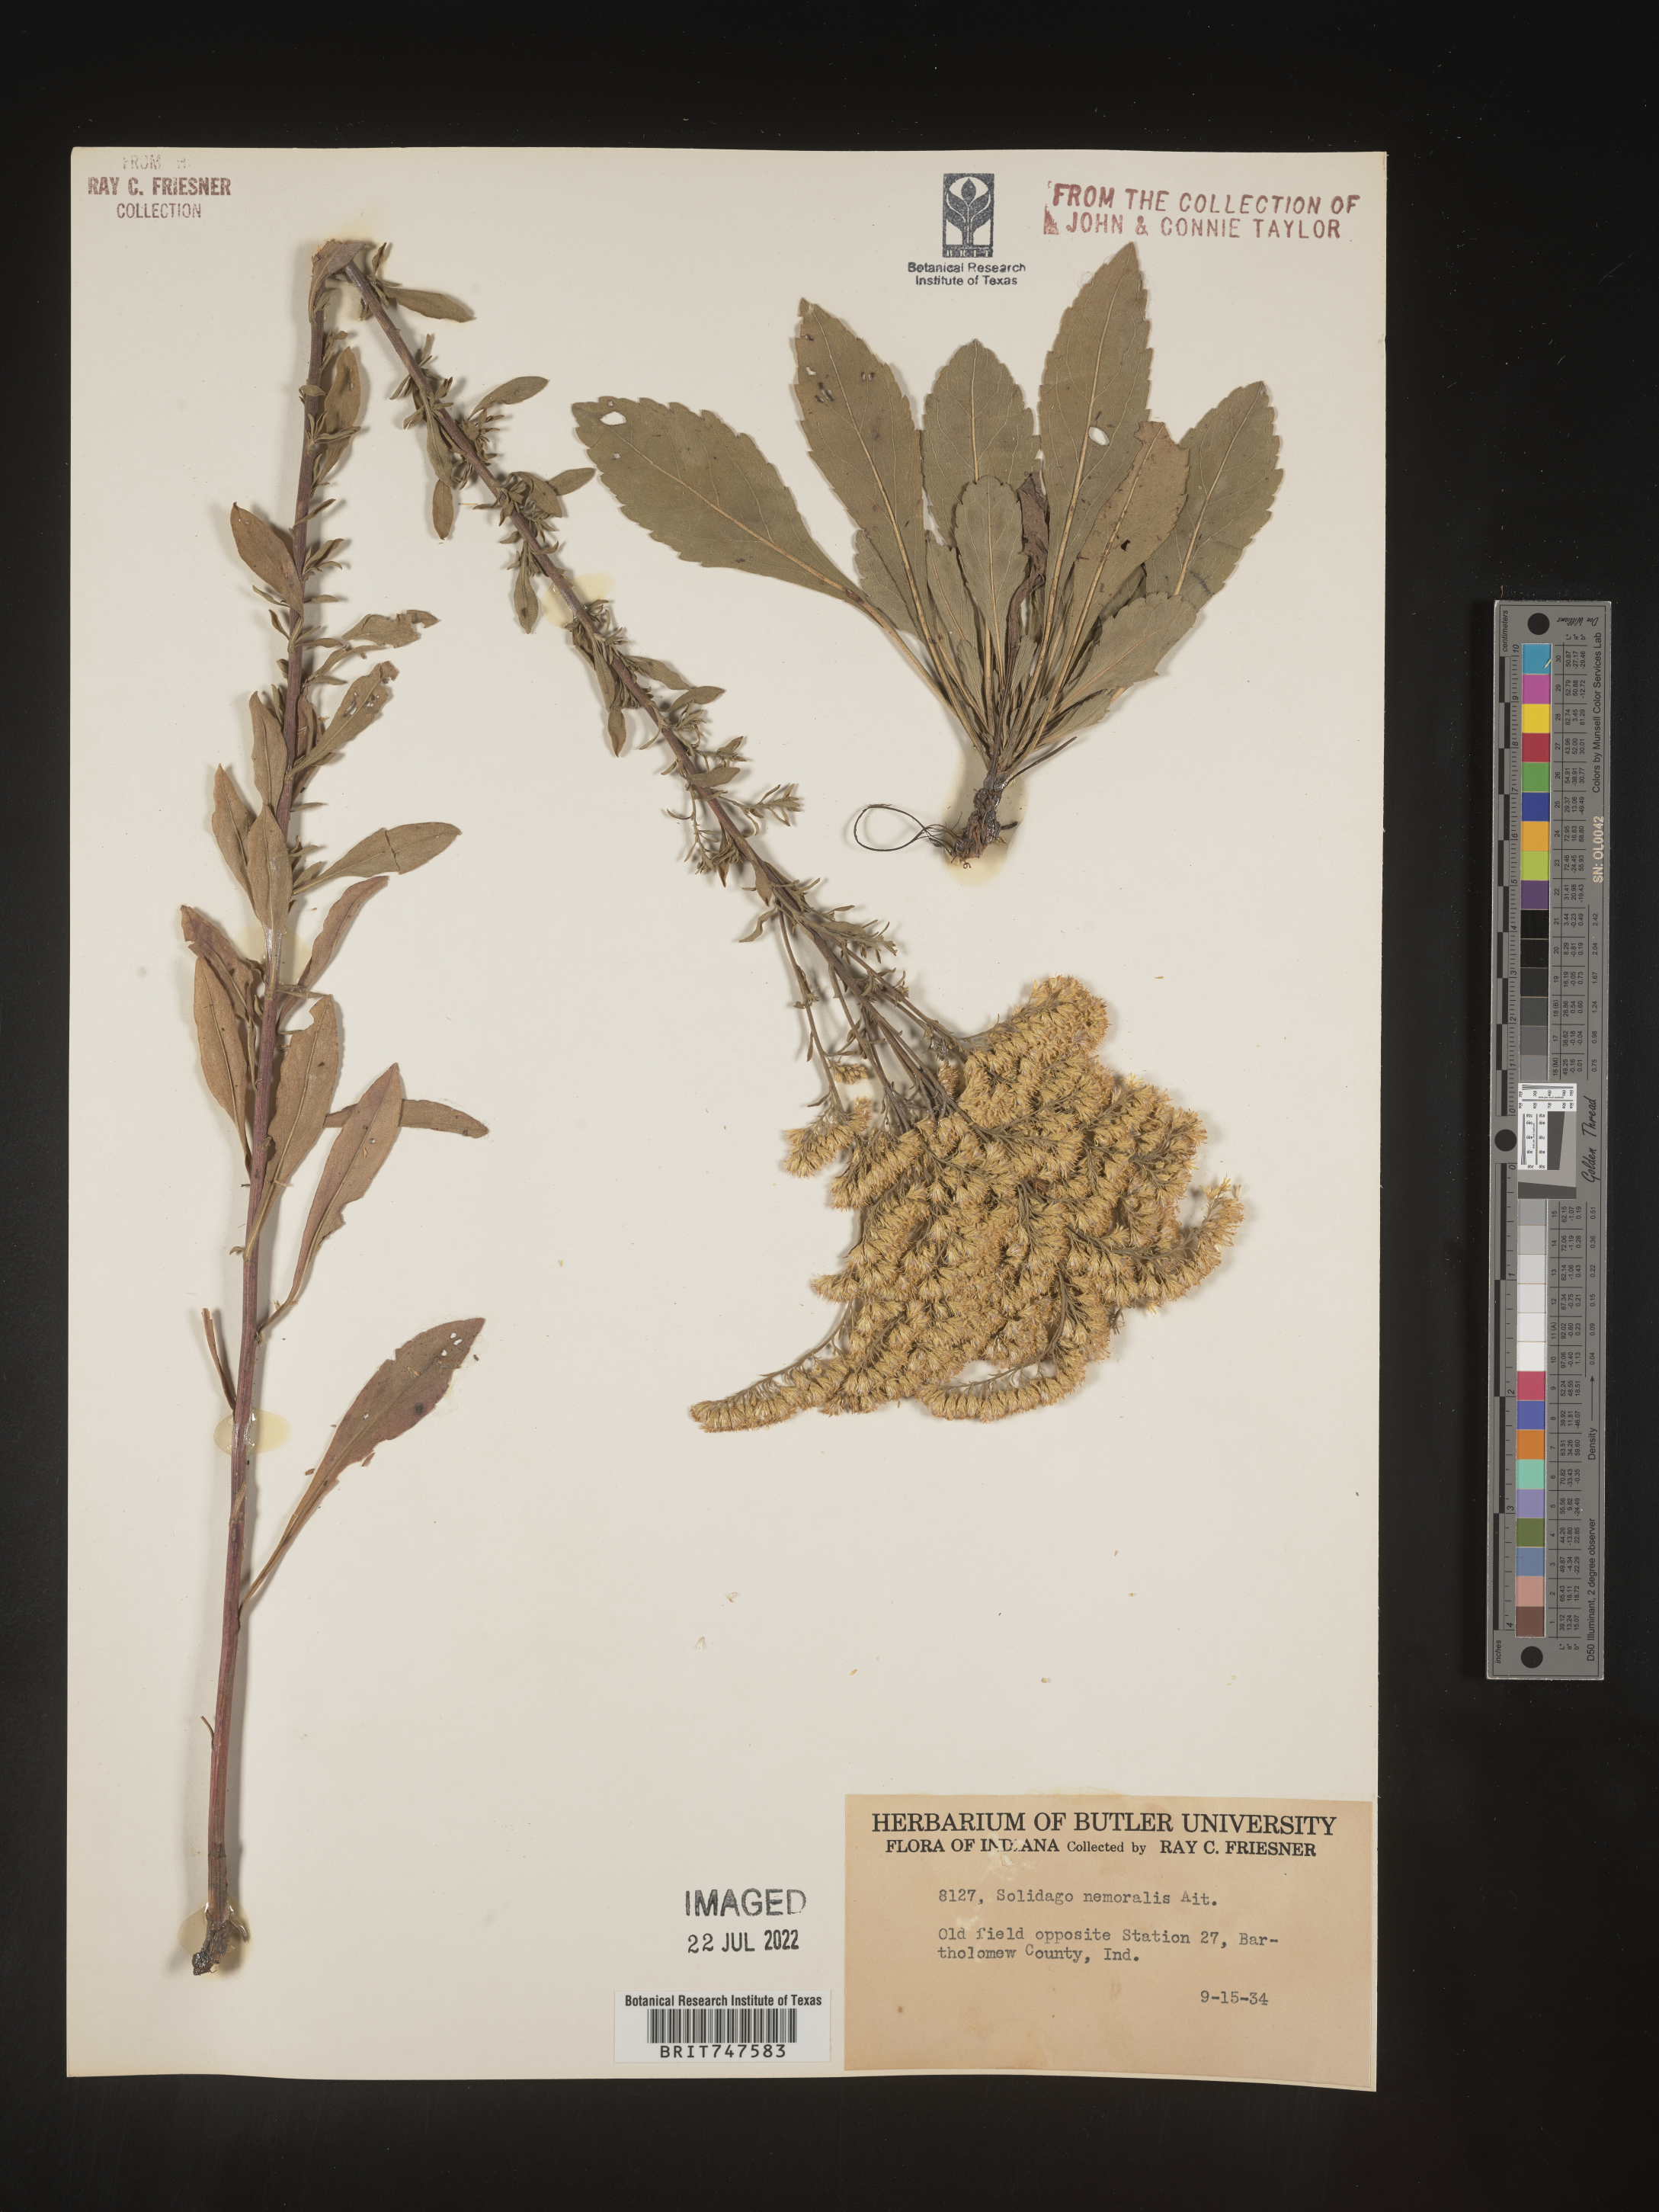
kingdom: Plantae
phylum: Tracheophyta
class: Magnoliopsida
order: Asterales
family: Asteraceae
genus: Solidago
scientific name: Solidago nemoralis
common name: Grey goldenrod
